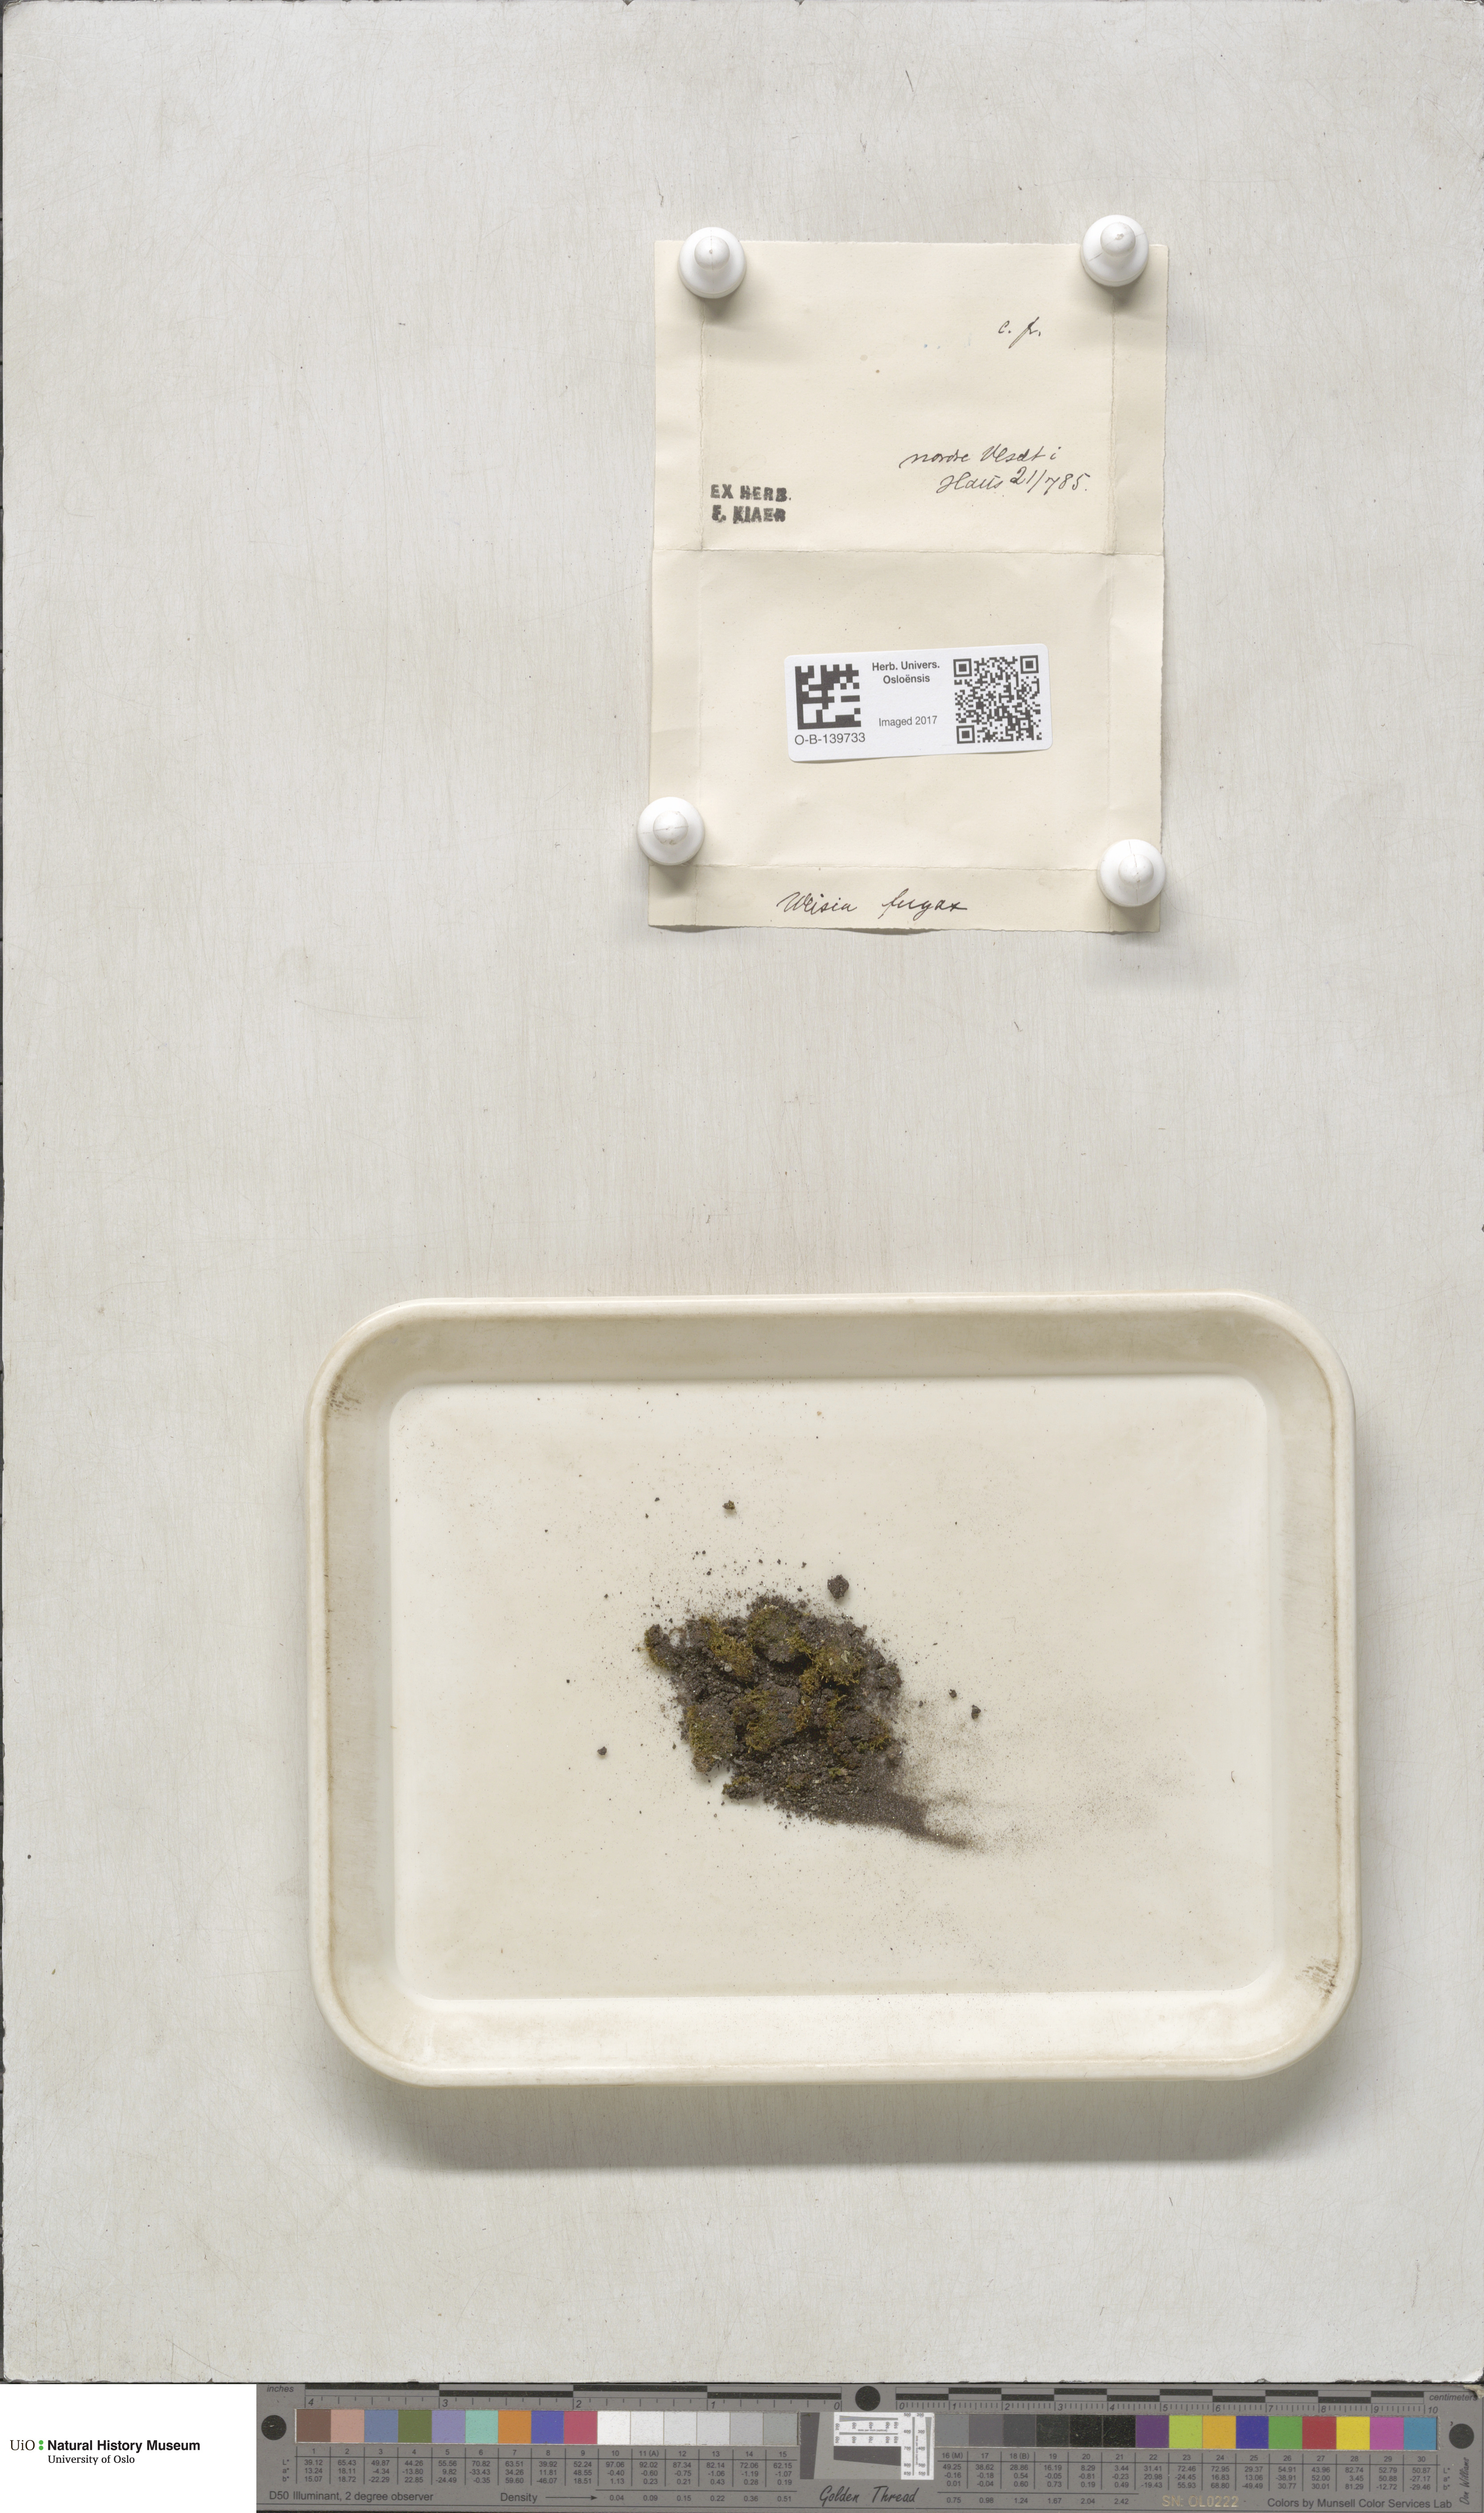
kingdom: Plantae
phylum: Bryophyta
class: Bryopsida
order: Dicranales
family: Rhabdoweisiaceae
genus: Rhabdoweisia
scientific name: Rhabdoweisia fugax
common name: Dwarf streak-moss
